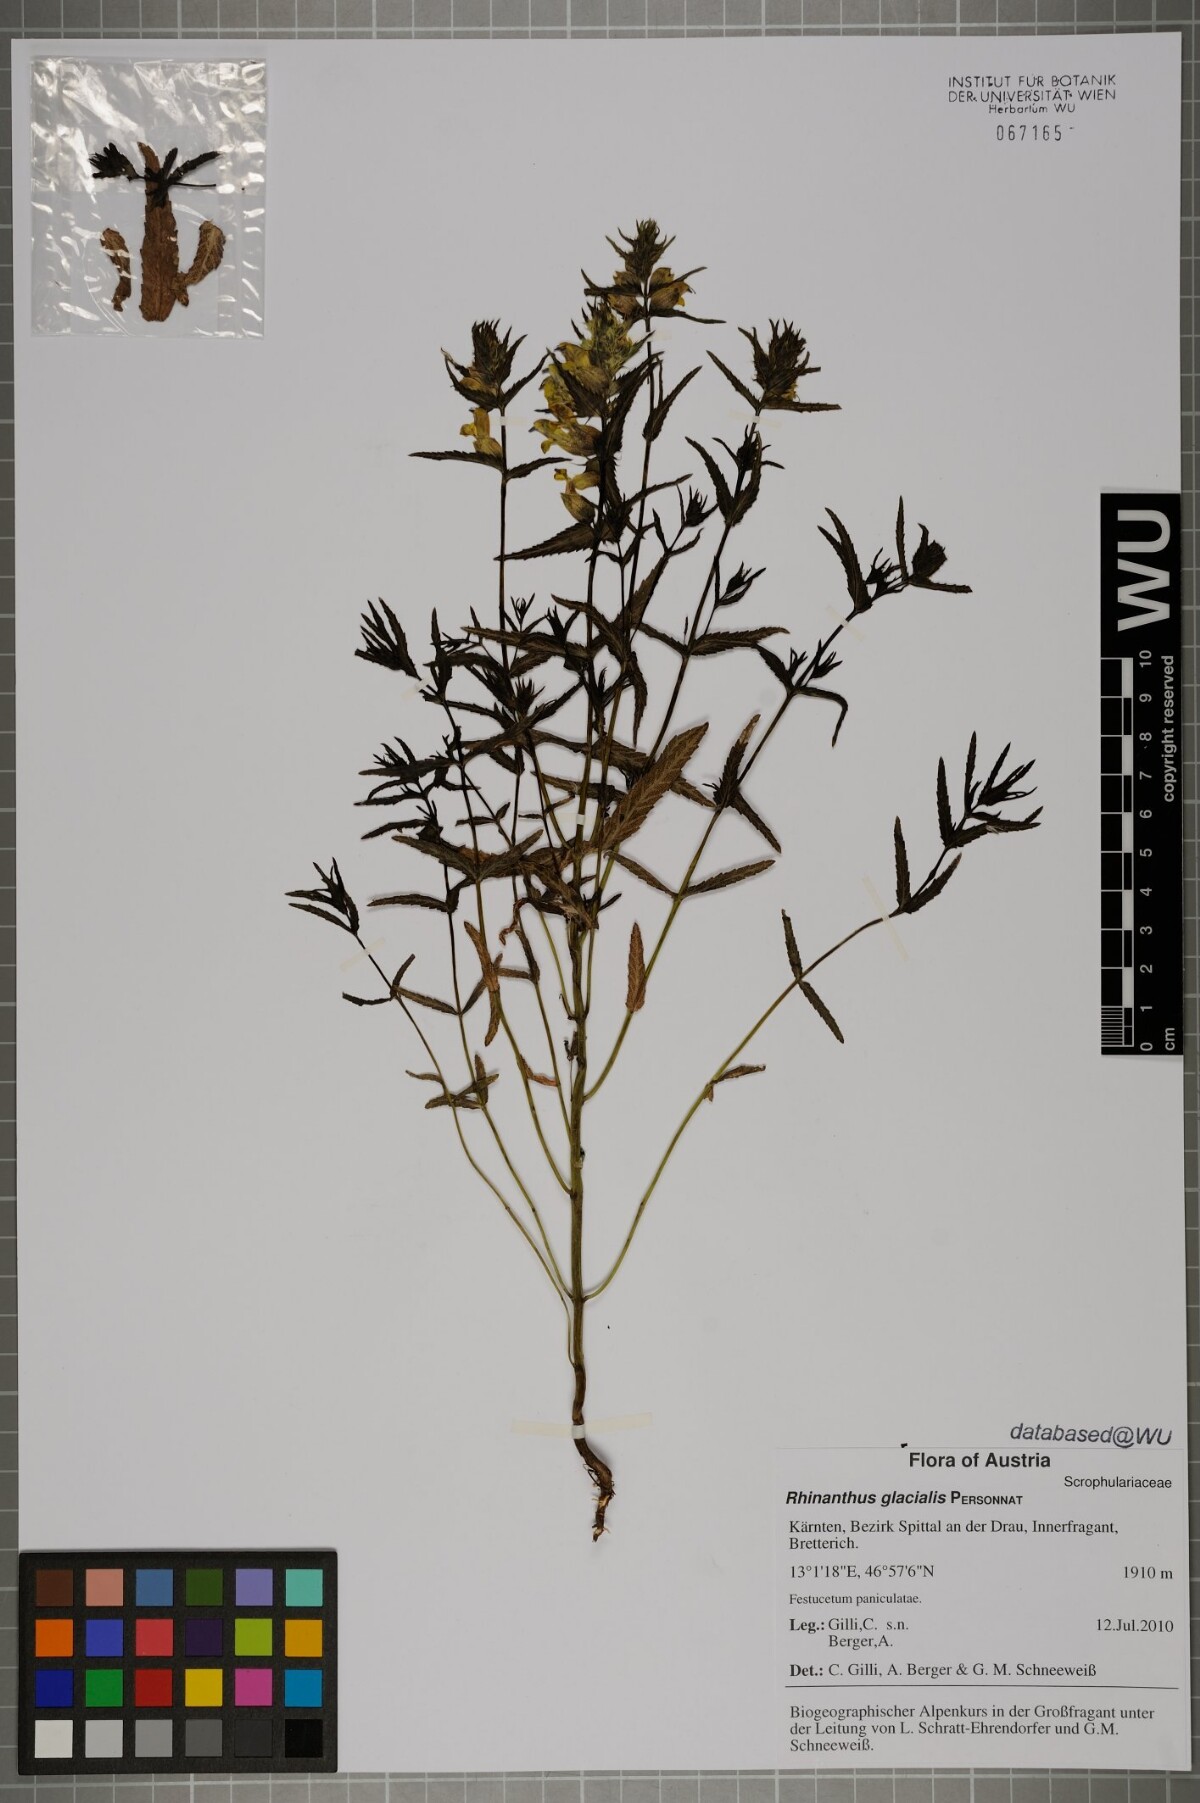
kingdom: Plantae
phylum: Tracheophyta
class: Magnoliopsida
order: Lamiales
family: Orobanchaceae
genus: Rhinanthus
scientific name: Rhinanthus glacialis
